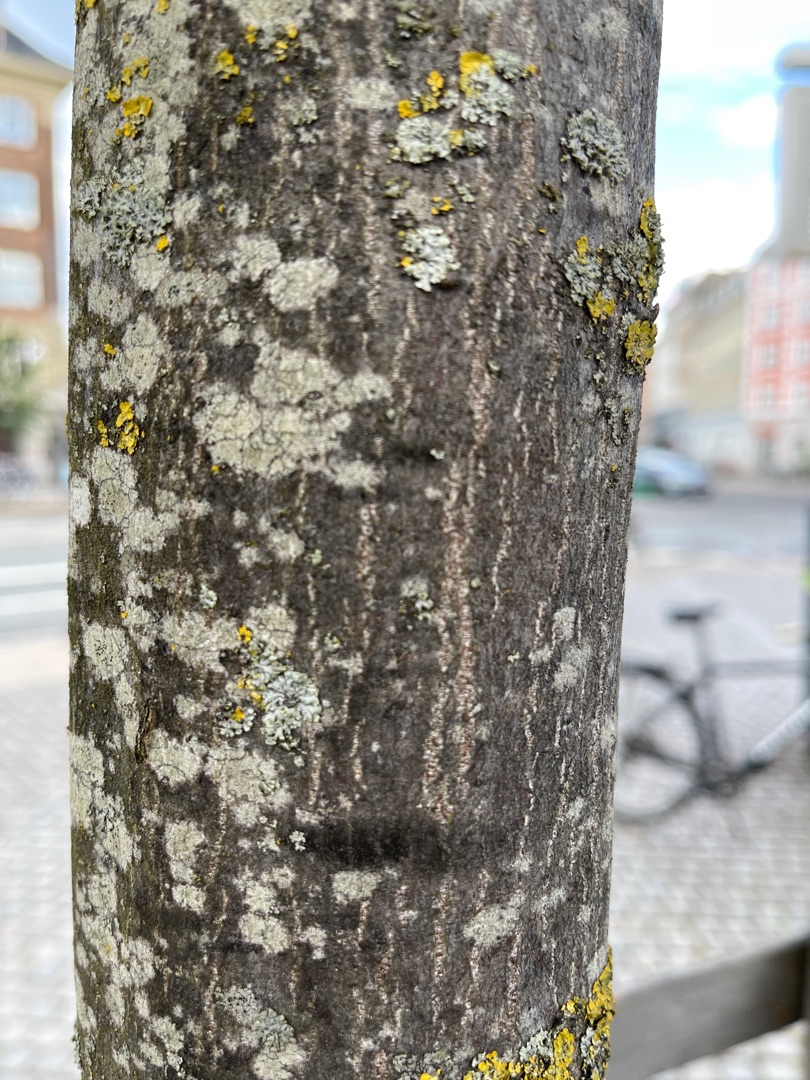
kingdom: Plantae
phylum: Tracheophyta
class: Magnoliopsida
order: Fagales
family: Betulaceae
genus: Carpinus
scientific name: Carpinus betulus
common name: Avnbøg
